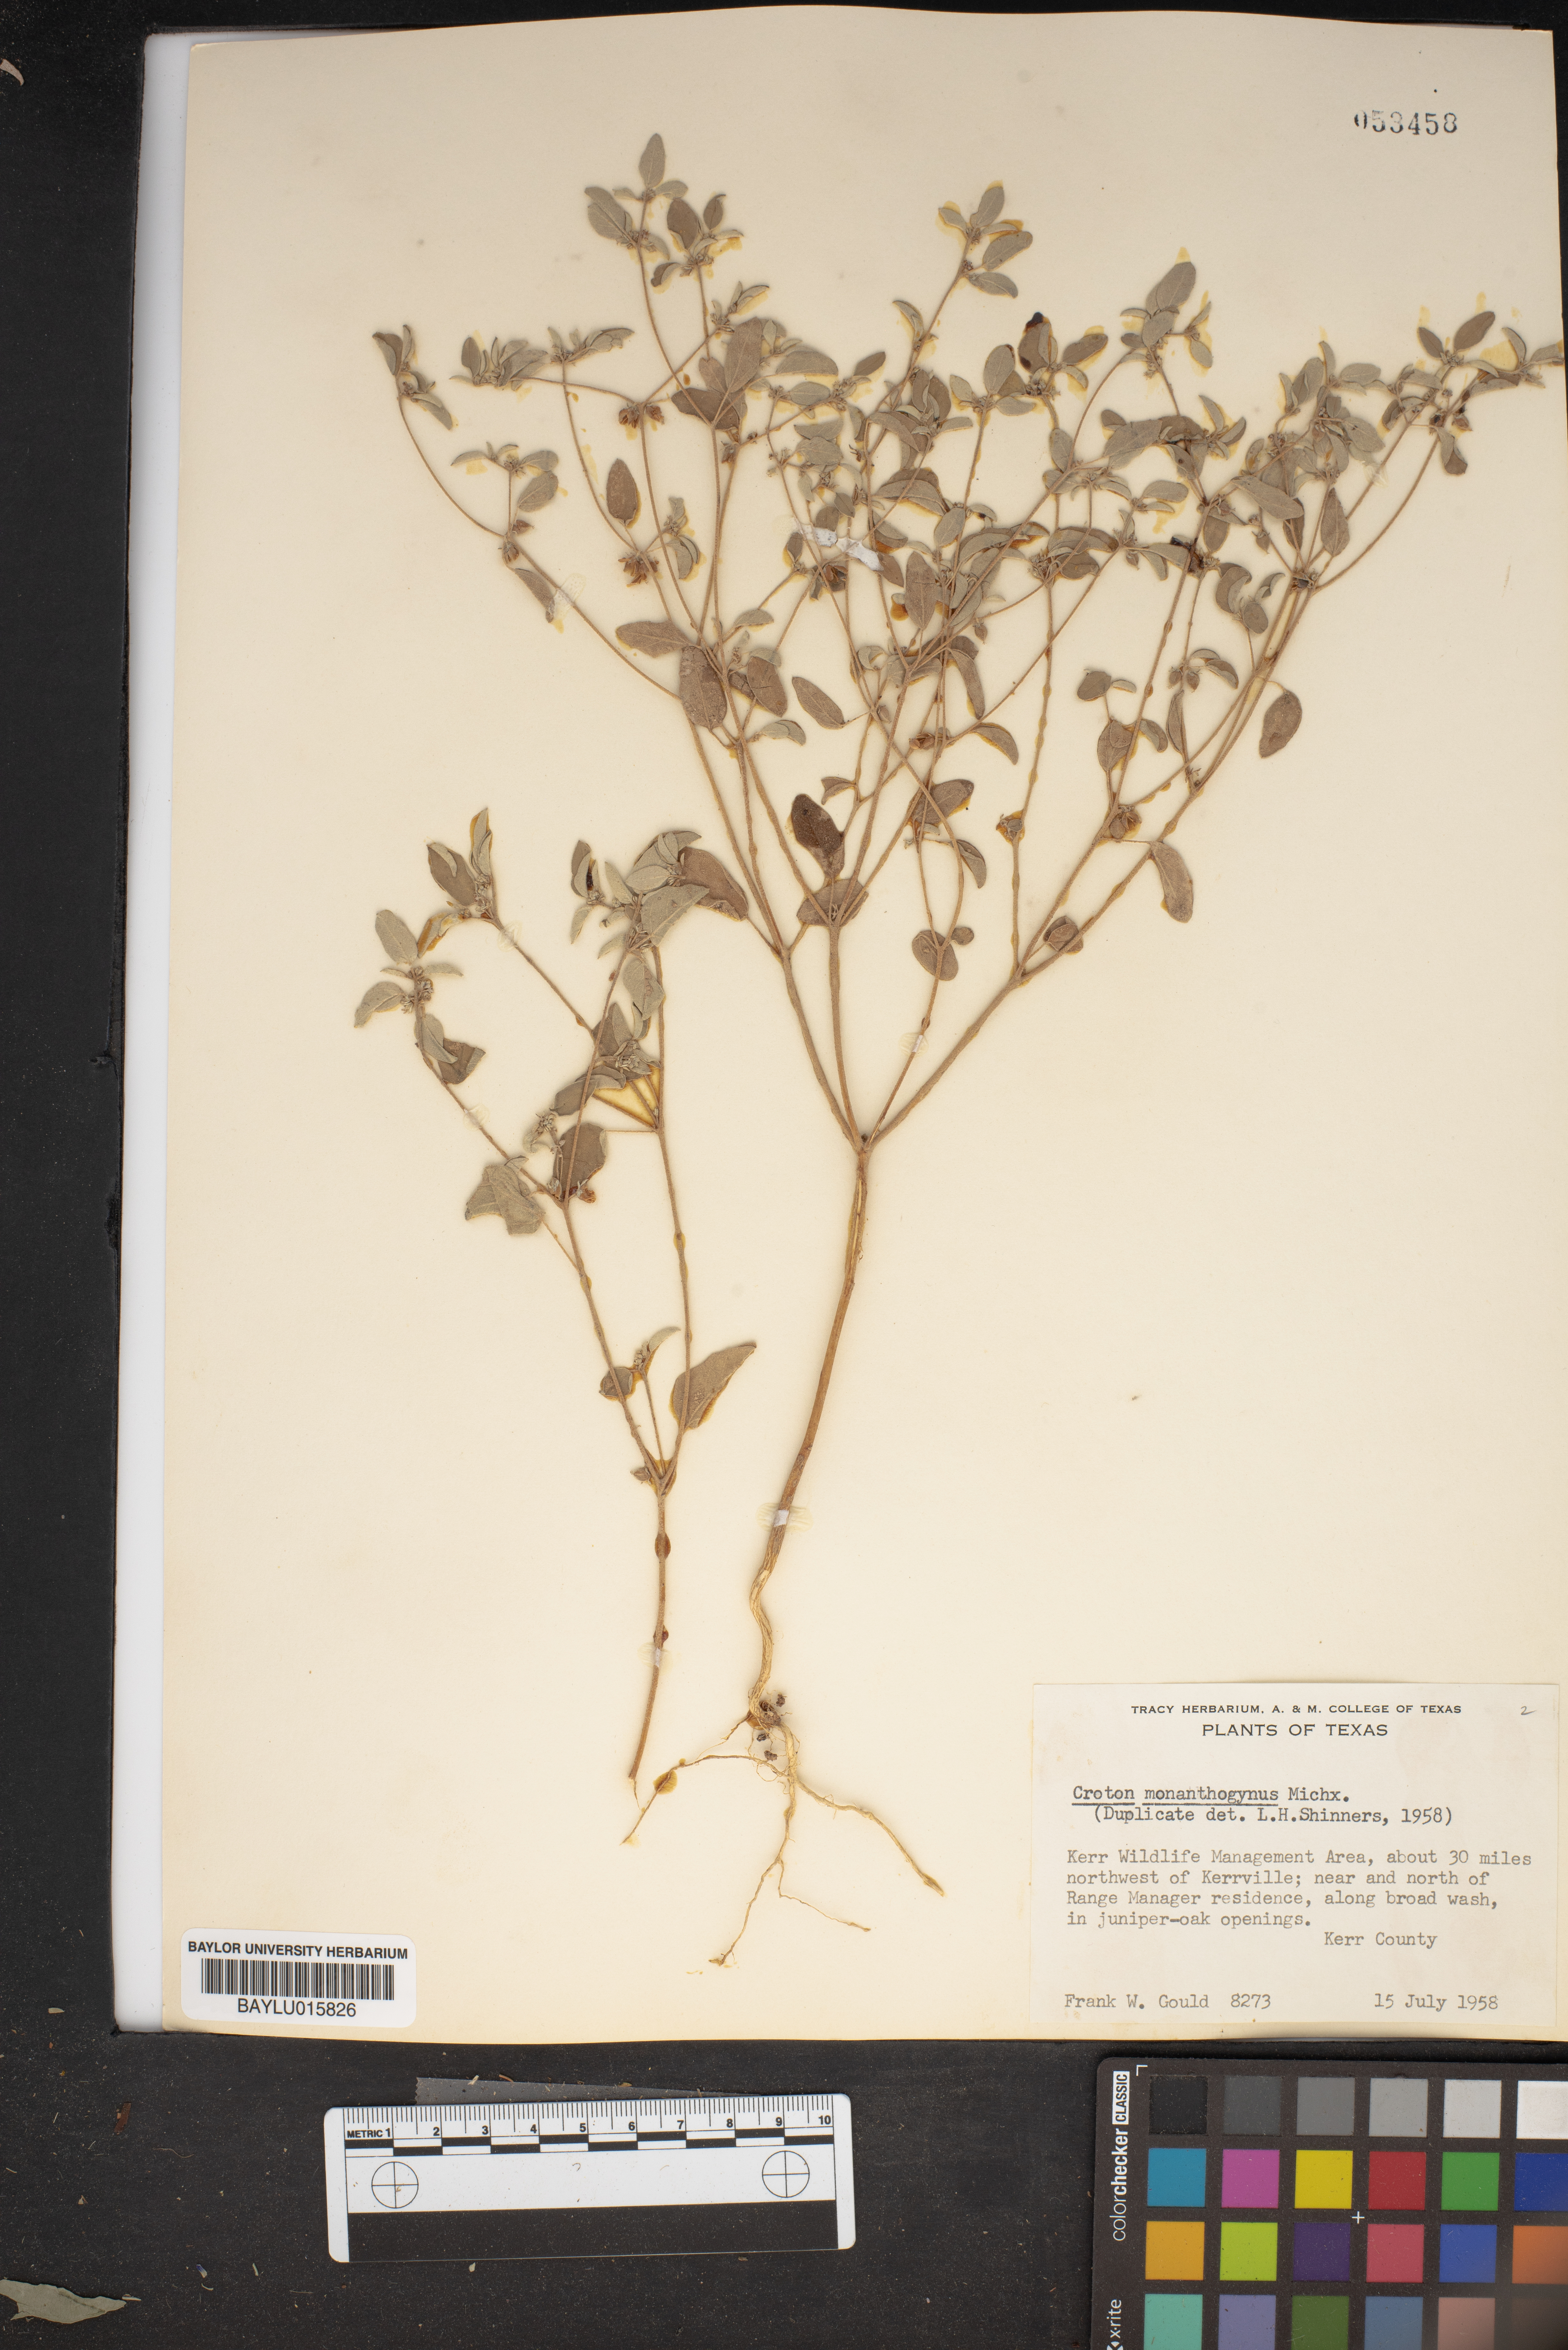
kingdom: Plantae
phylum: Tracheophyta
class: Magnoliopsida
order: Malpighiales
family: Euphorbiaceae
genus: Croton
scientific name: Croton monanthogynus
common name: One-seed croton
